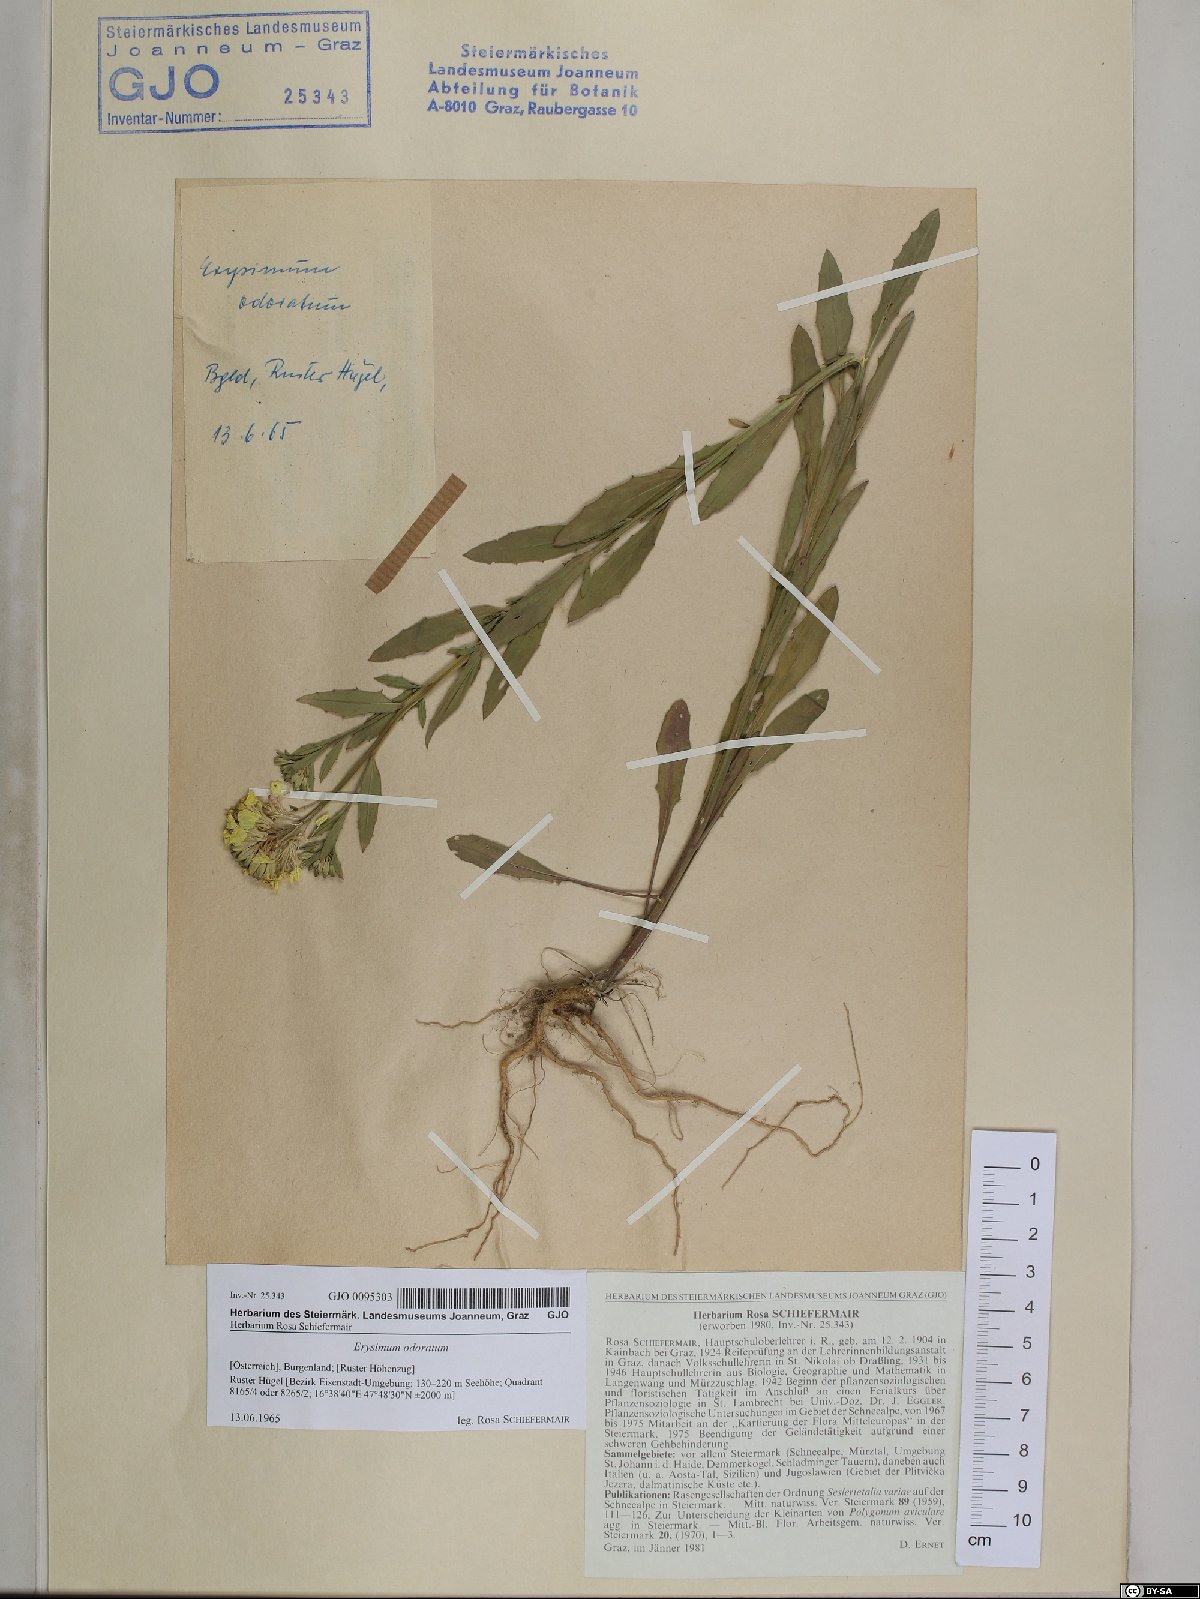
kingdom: Plantae
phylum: Tracheophyta
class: Magnoliopsida
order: Brassicales
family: Brassicaceae
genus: Erysimum
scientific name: Erysimum odoratum
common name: Smelly wallflower
